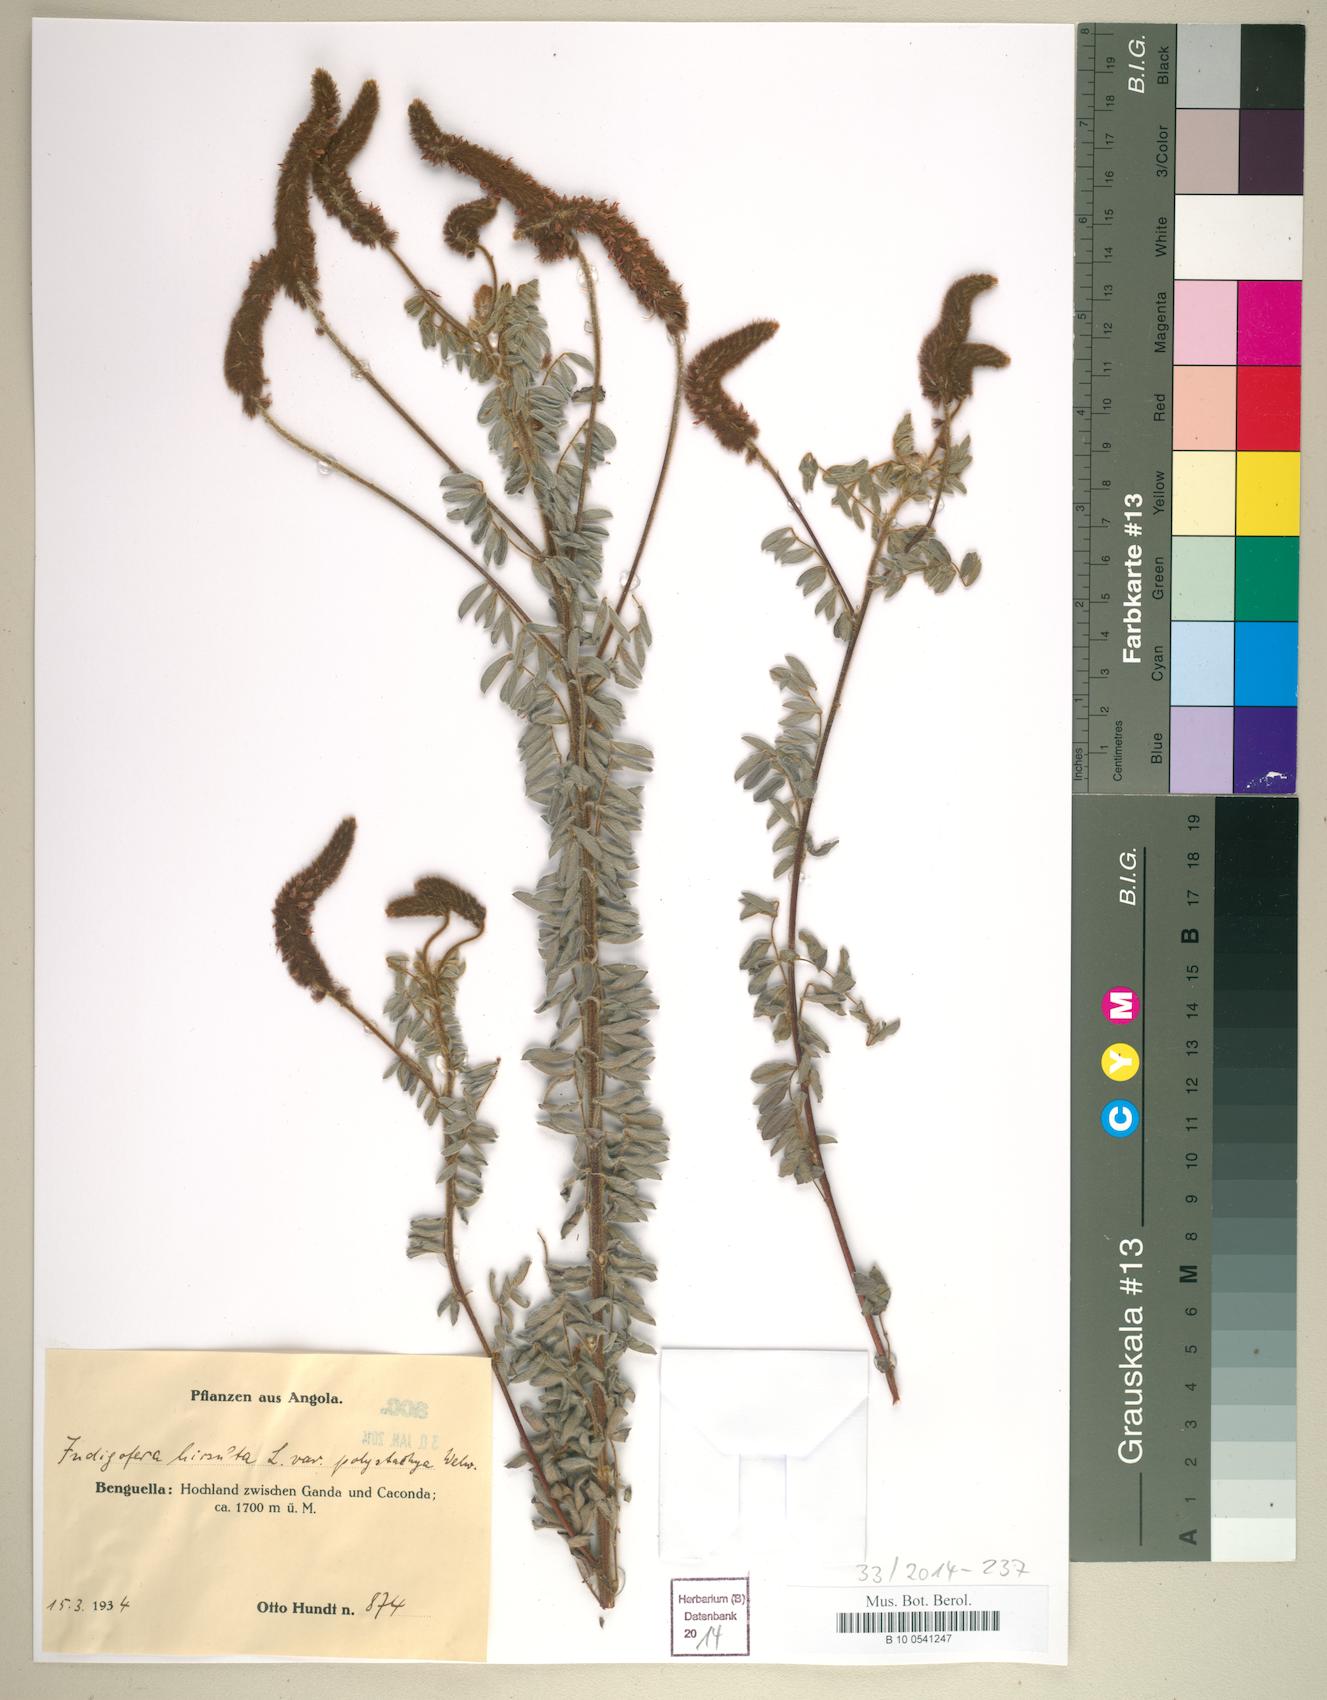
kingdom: Plantae
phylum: Tracheophyta
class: Magnoliopsida
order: Fabales
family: Fabaceae
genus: Indigofera
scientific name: Indigofera fuscobarbata
